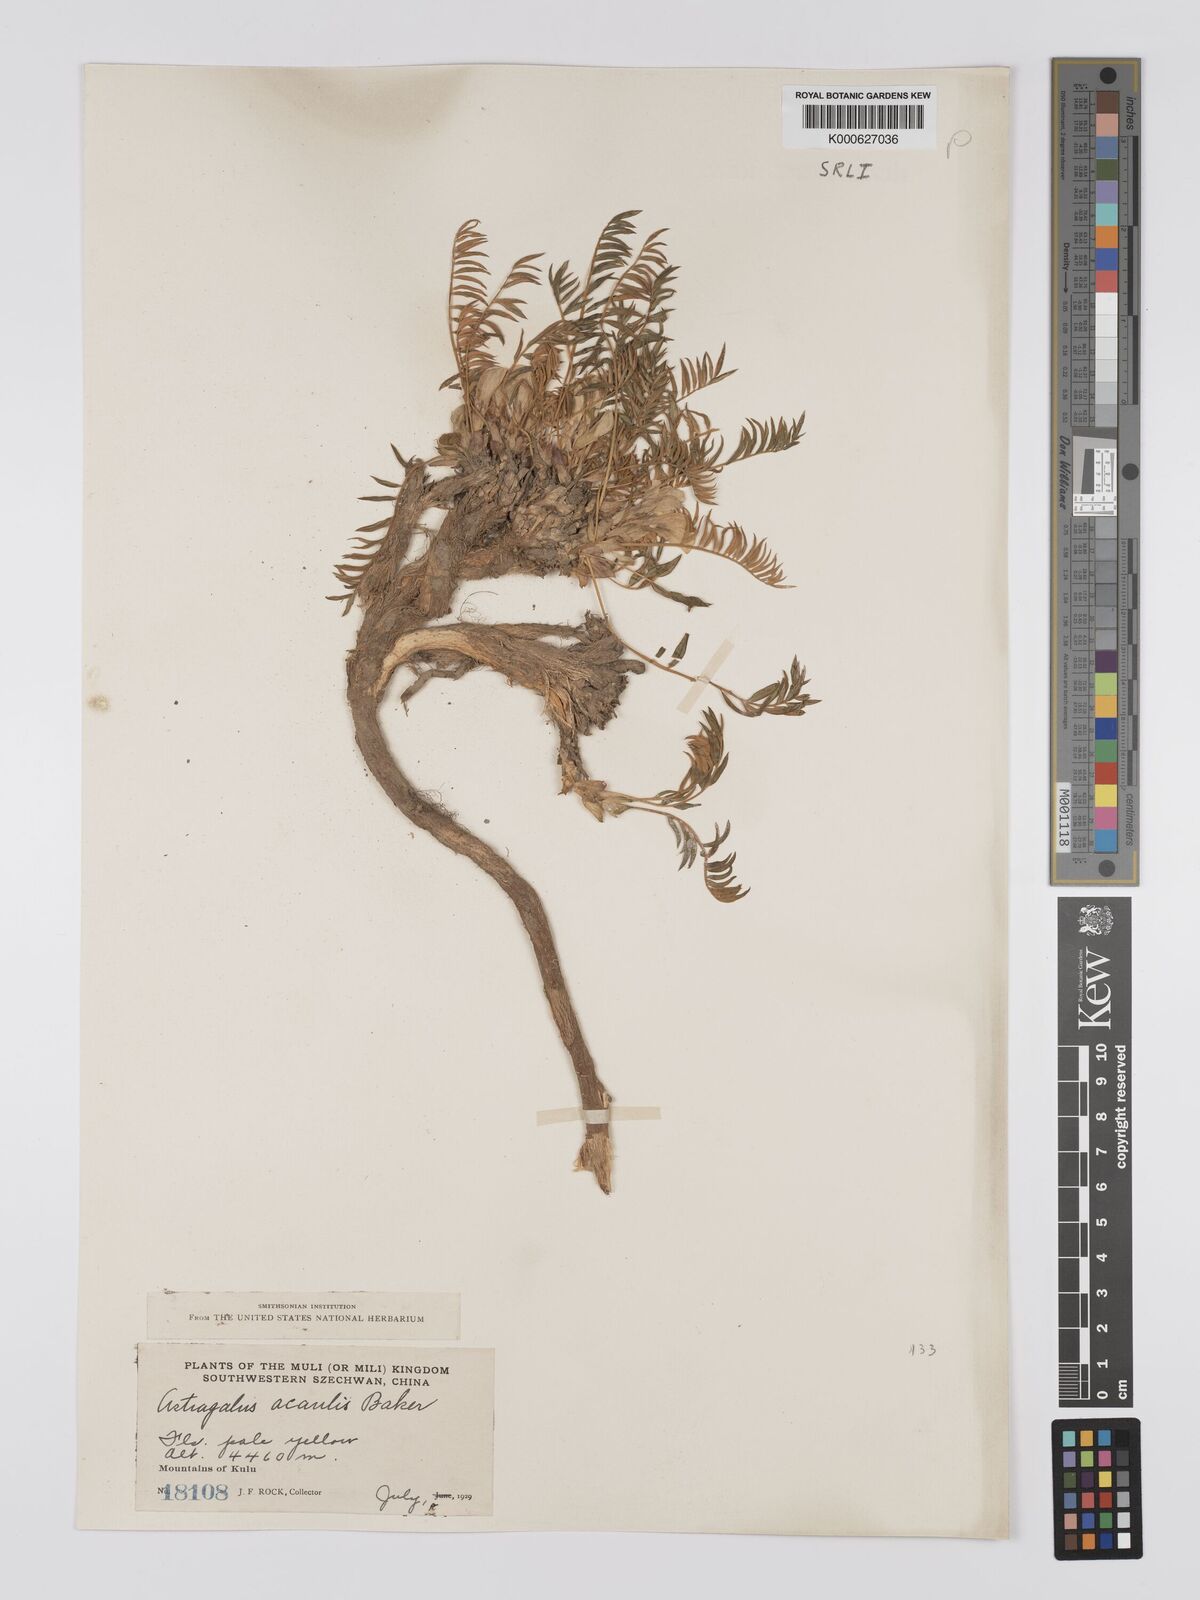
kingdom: Plantae
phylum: Tracheophyta
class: Magnoliopsida
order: Fabales
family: Fabaceae
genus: Astragalus
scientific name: Astragalus acaulis
